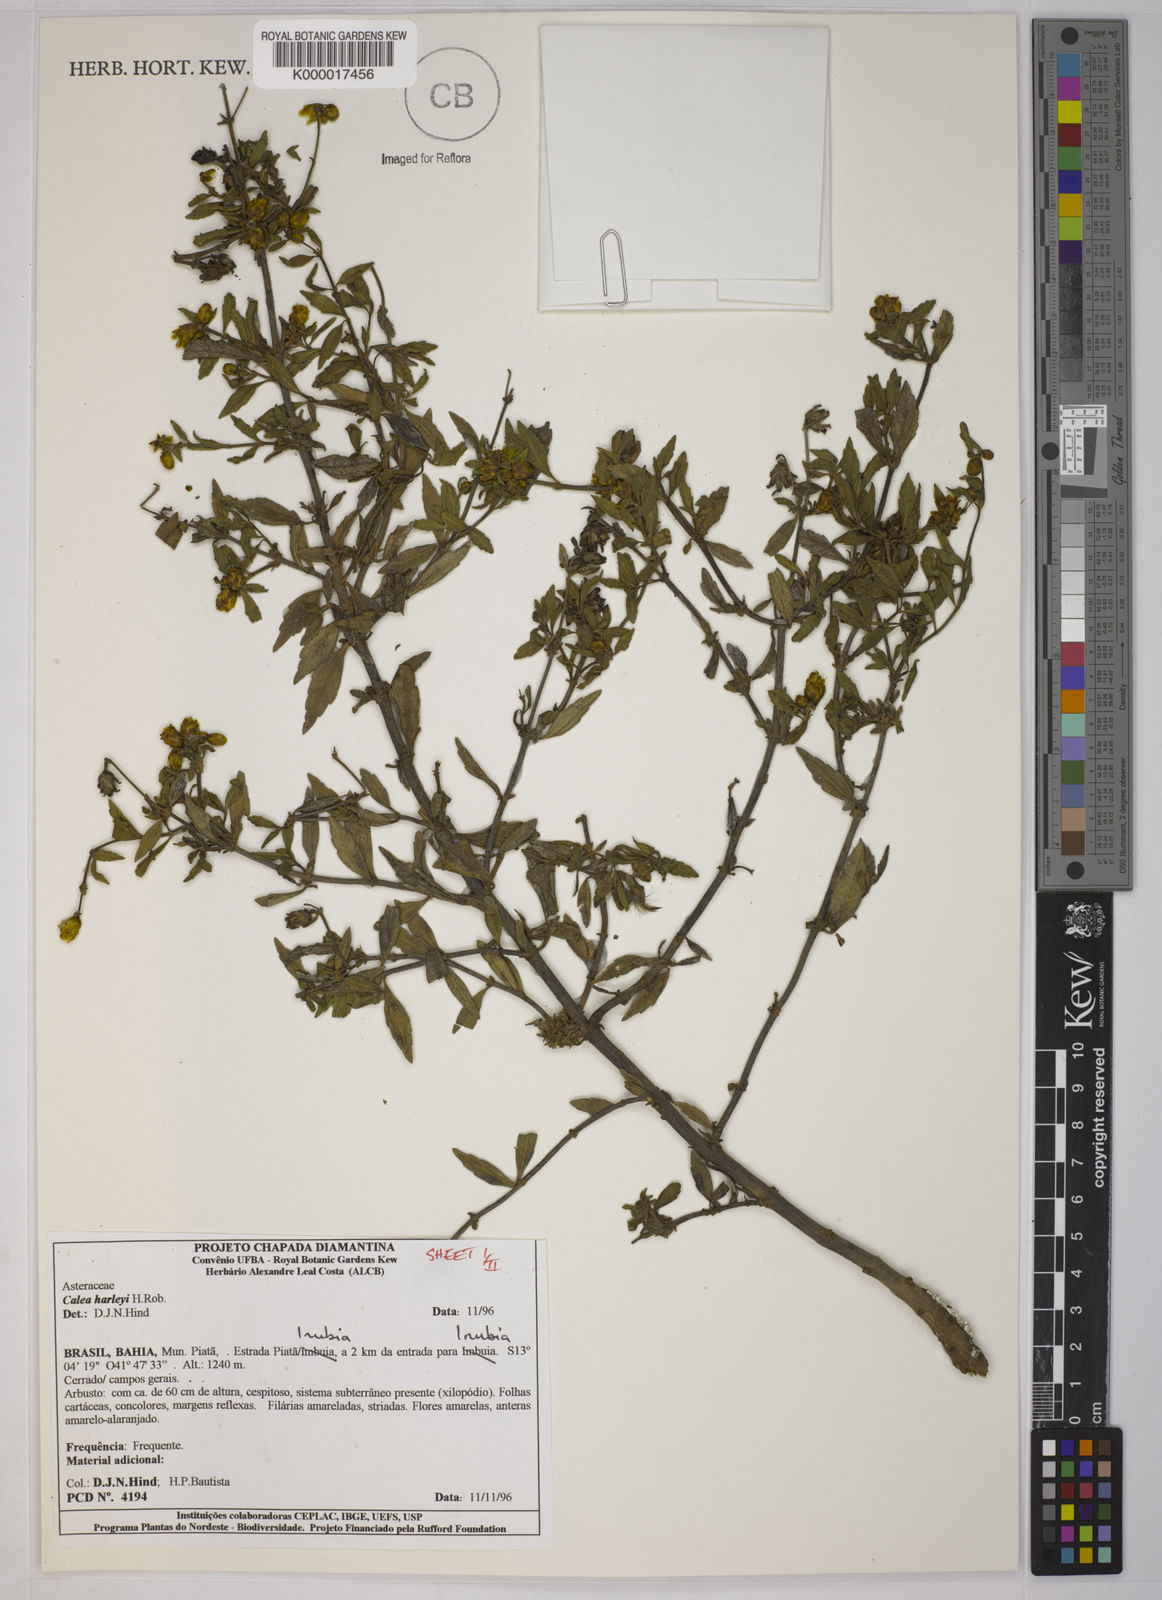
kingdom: Plantae
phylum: Tracheophyta
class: Magnoliopsida
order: Asterales
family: Asteraceae
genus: Calea
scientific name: Calea harleyi
